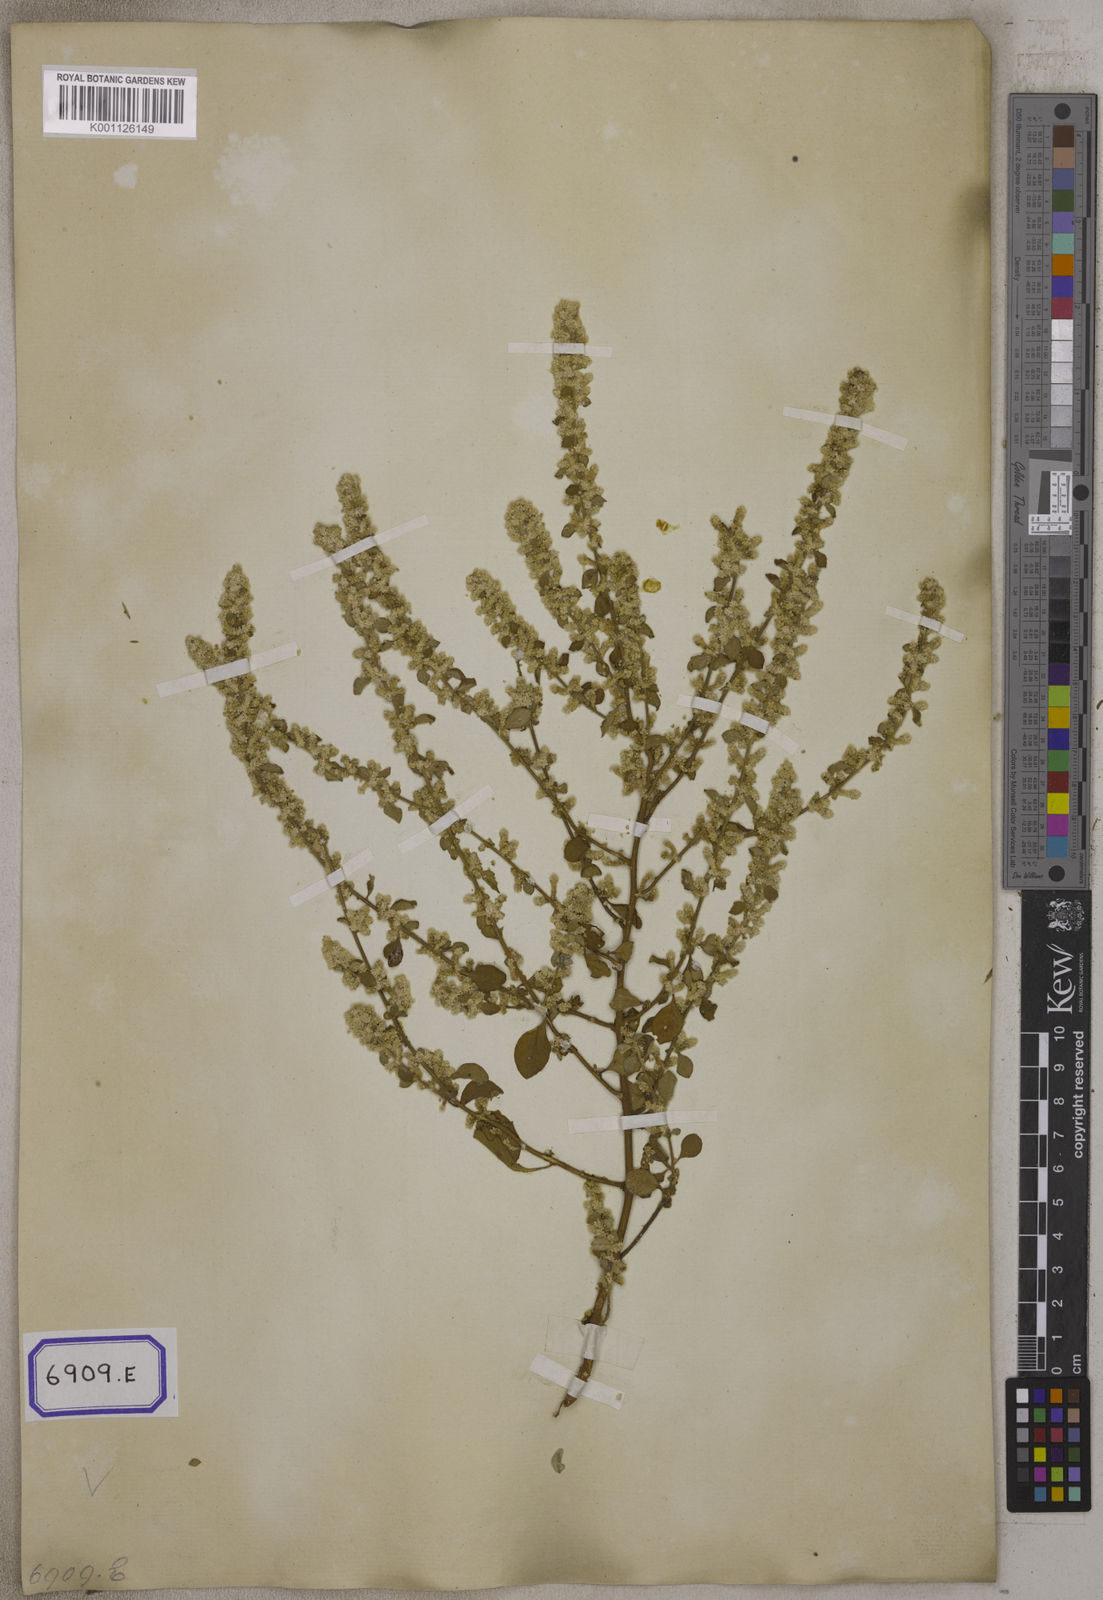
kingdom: Plantae
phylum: Tracheophyta
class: Magnoliopsida
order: Caryophyllales
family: Amaranthaceae
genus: Aerva
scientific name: Aerva
